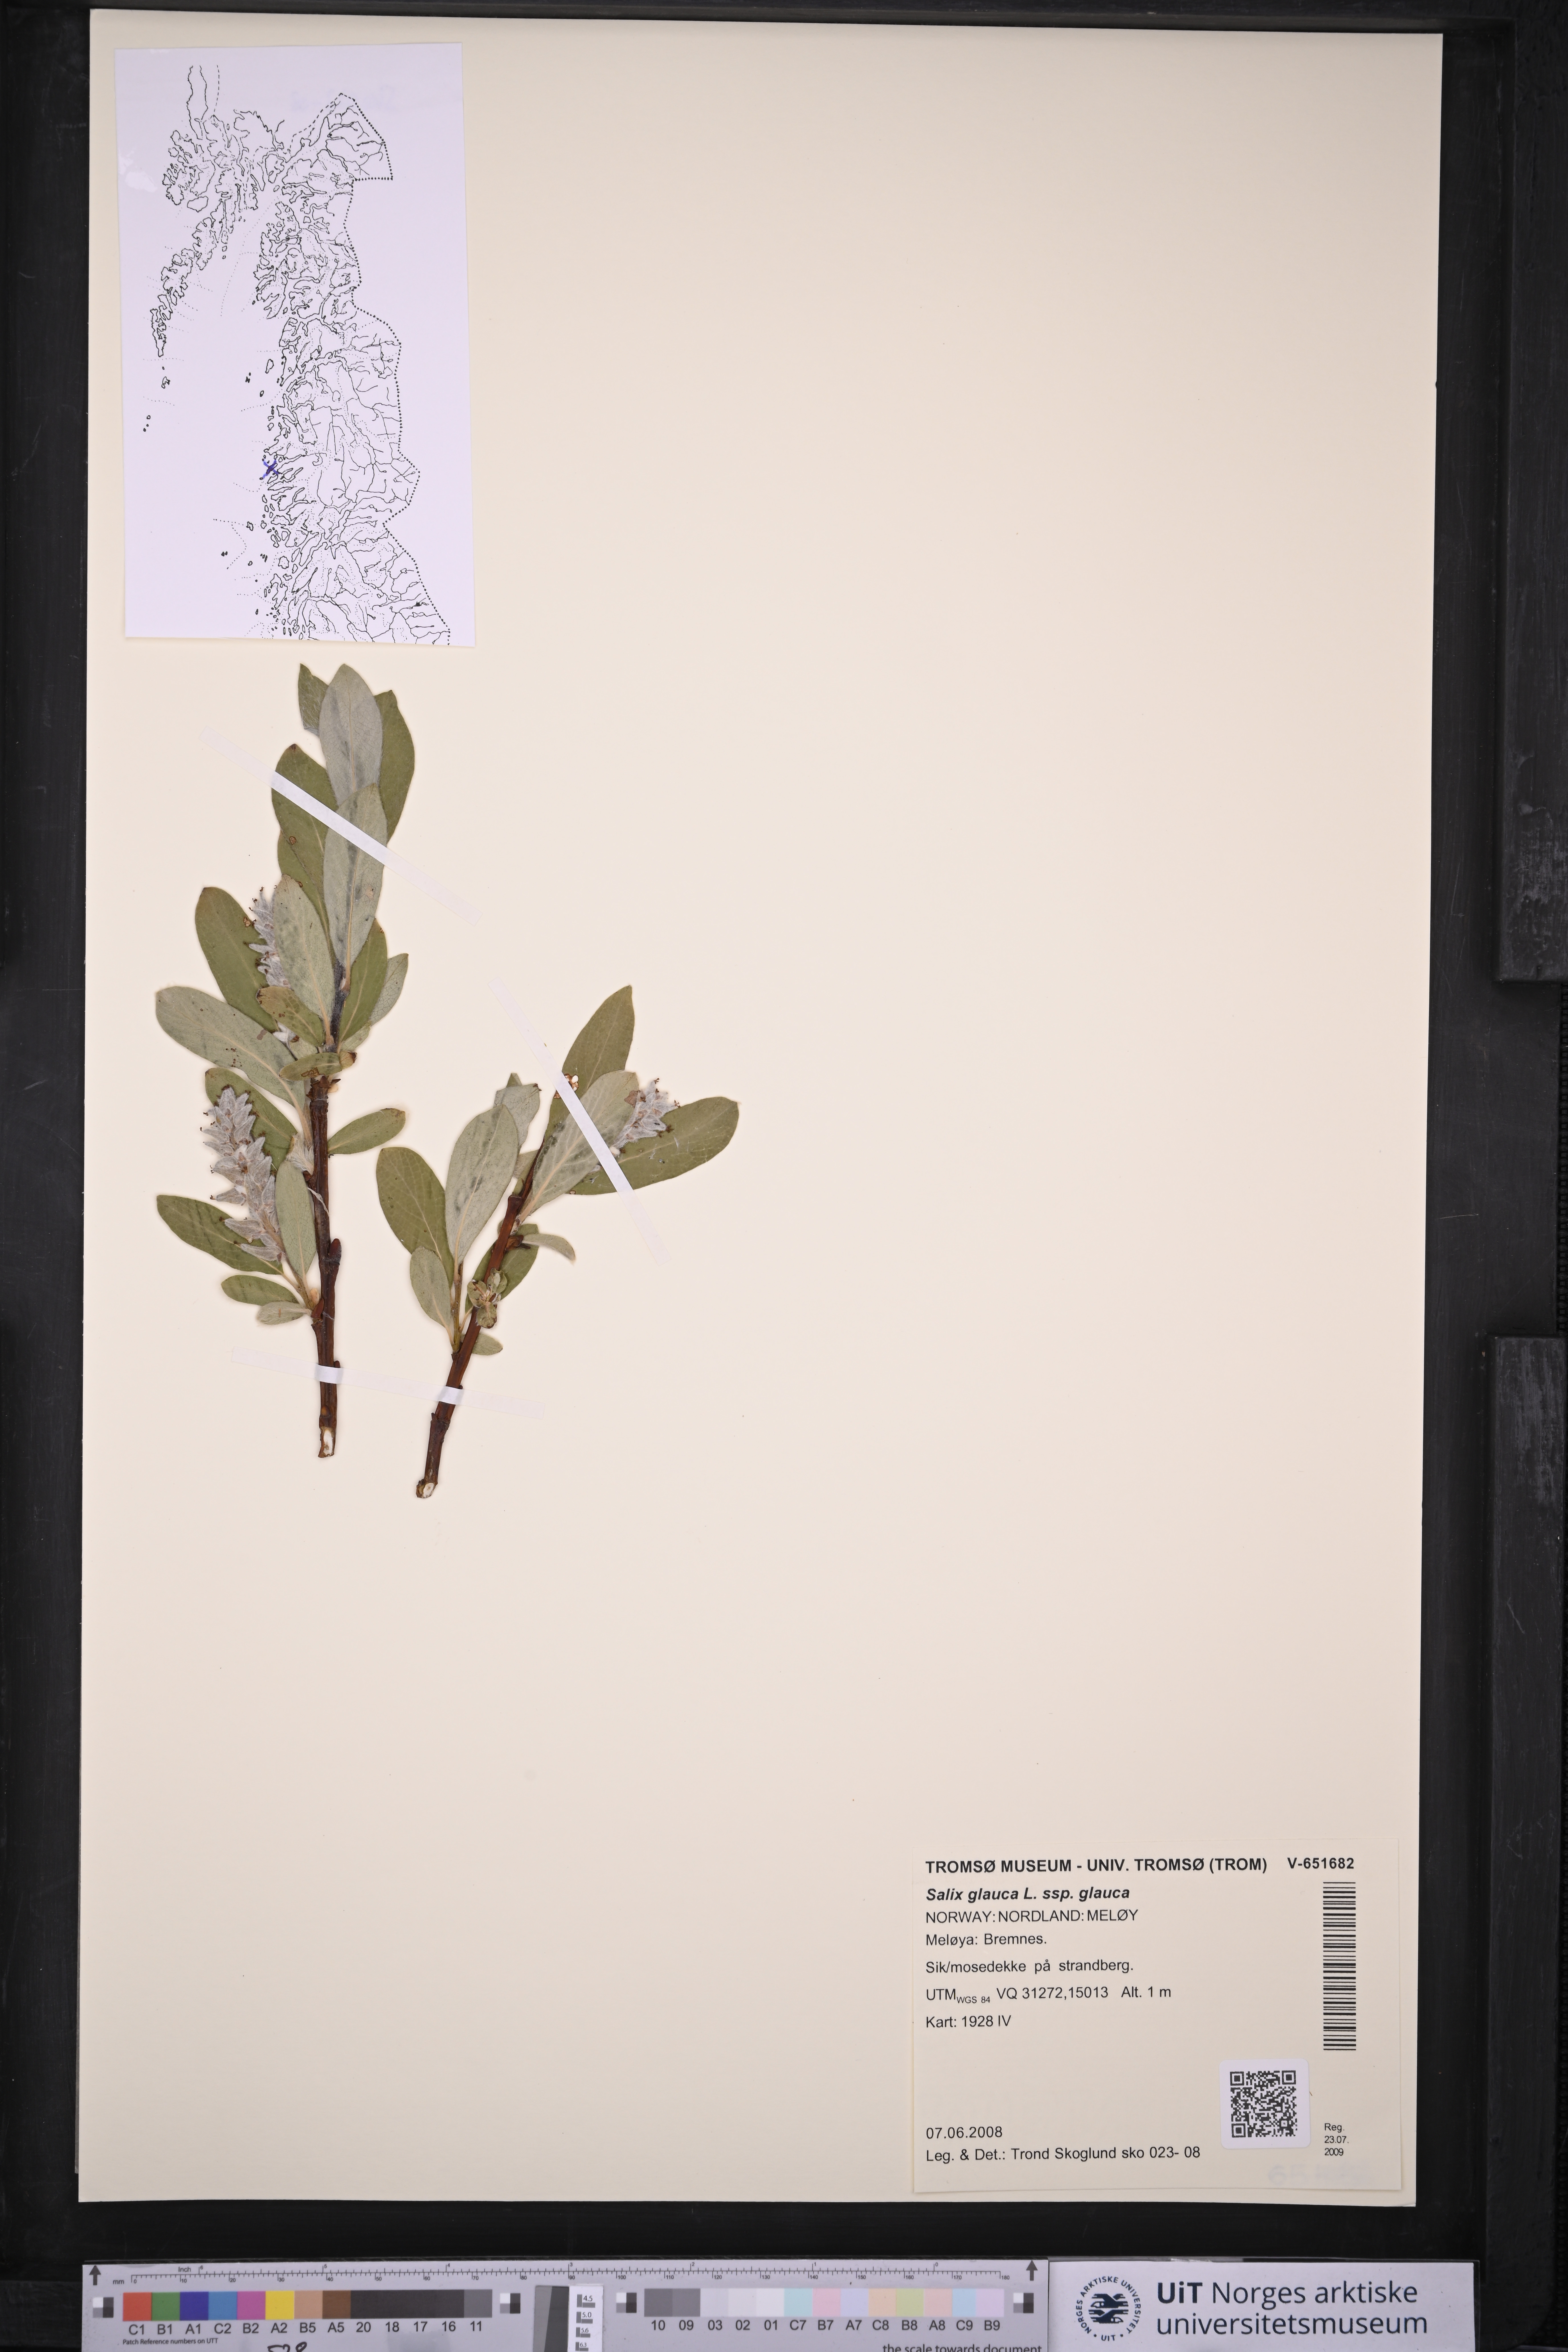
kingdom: Plantae
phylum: Tracheophyta
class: Magnoliopsida
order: Malpighiales
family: Salicaceae
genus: Salix
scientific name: Salix glauca
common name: Glaucous willow
